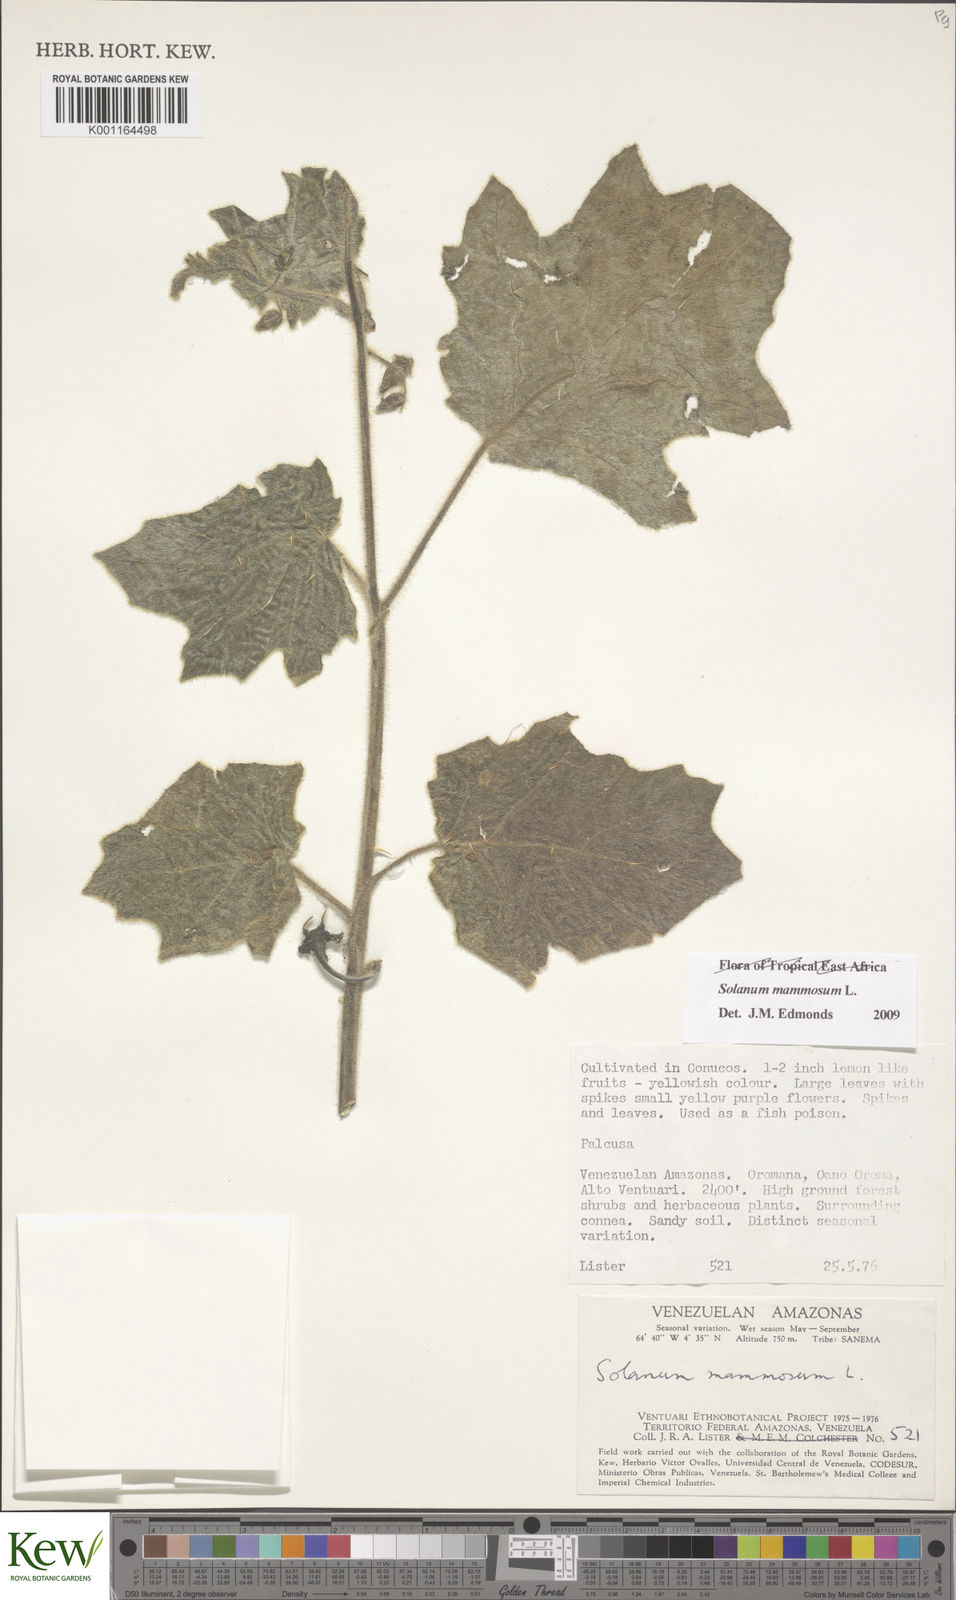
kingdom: Plantae
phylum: Tracheophyta
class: Magnoliopsida
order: Solanales
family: Solanaceae
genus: Solanum
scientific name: Solanum mammosum
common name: Nipple fruit
